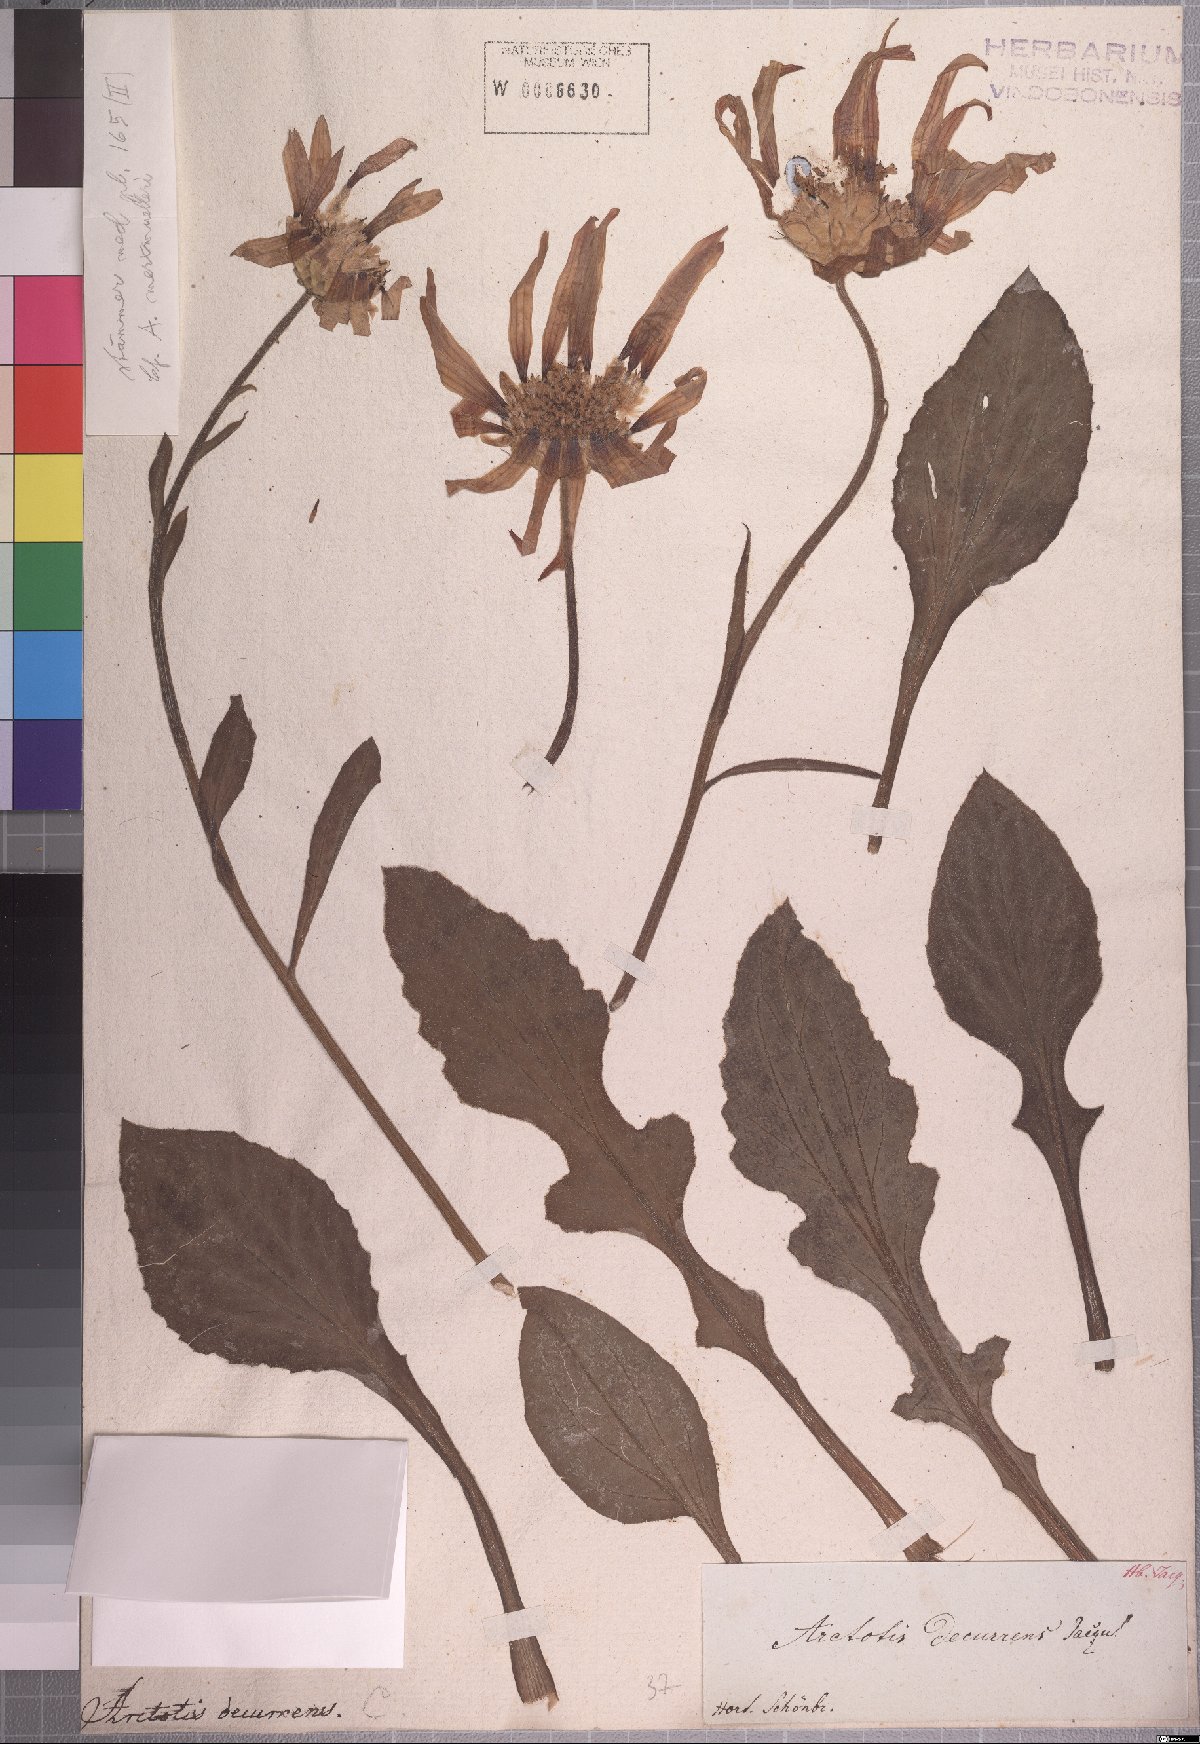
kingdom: Plantae
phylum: Tracheophyta
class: Magnoliopsida
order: Asterales
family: Asteraceae
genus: Arctotis
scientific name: Arctotis decurrens
